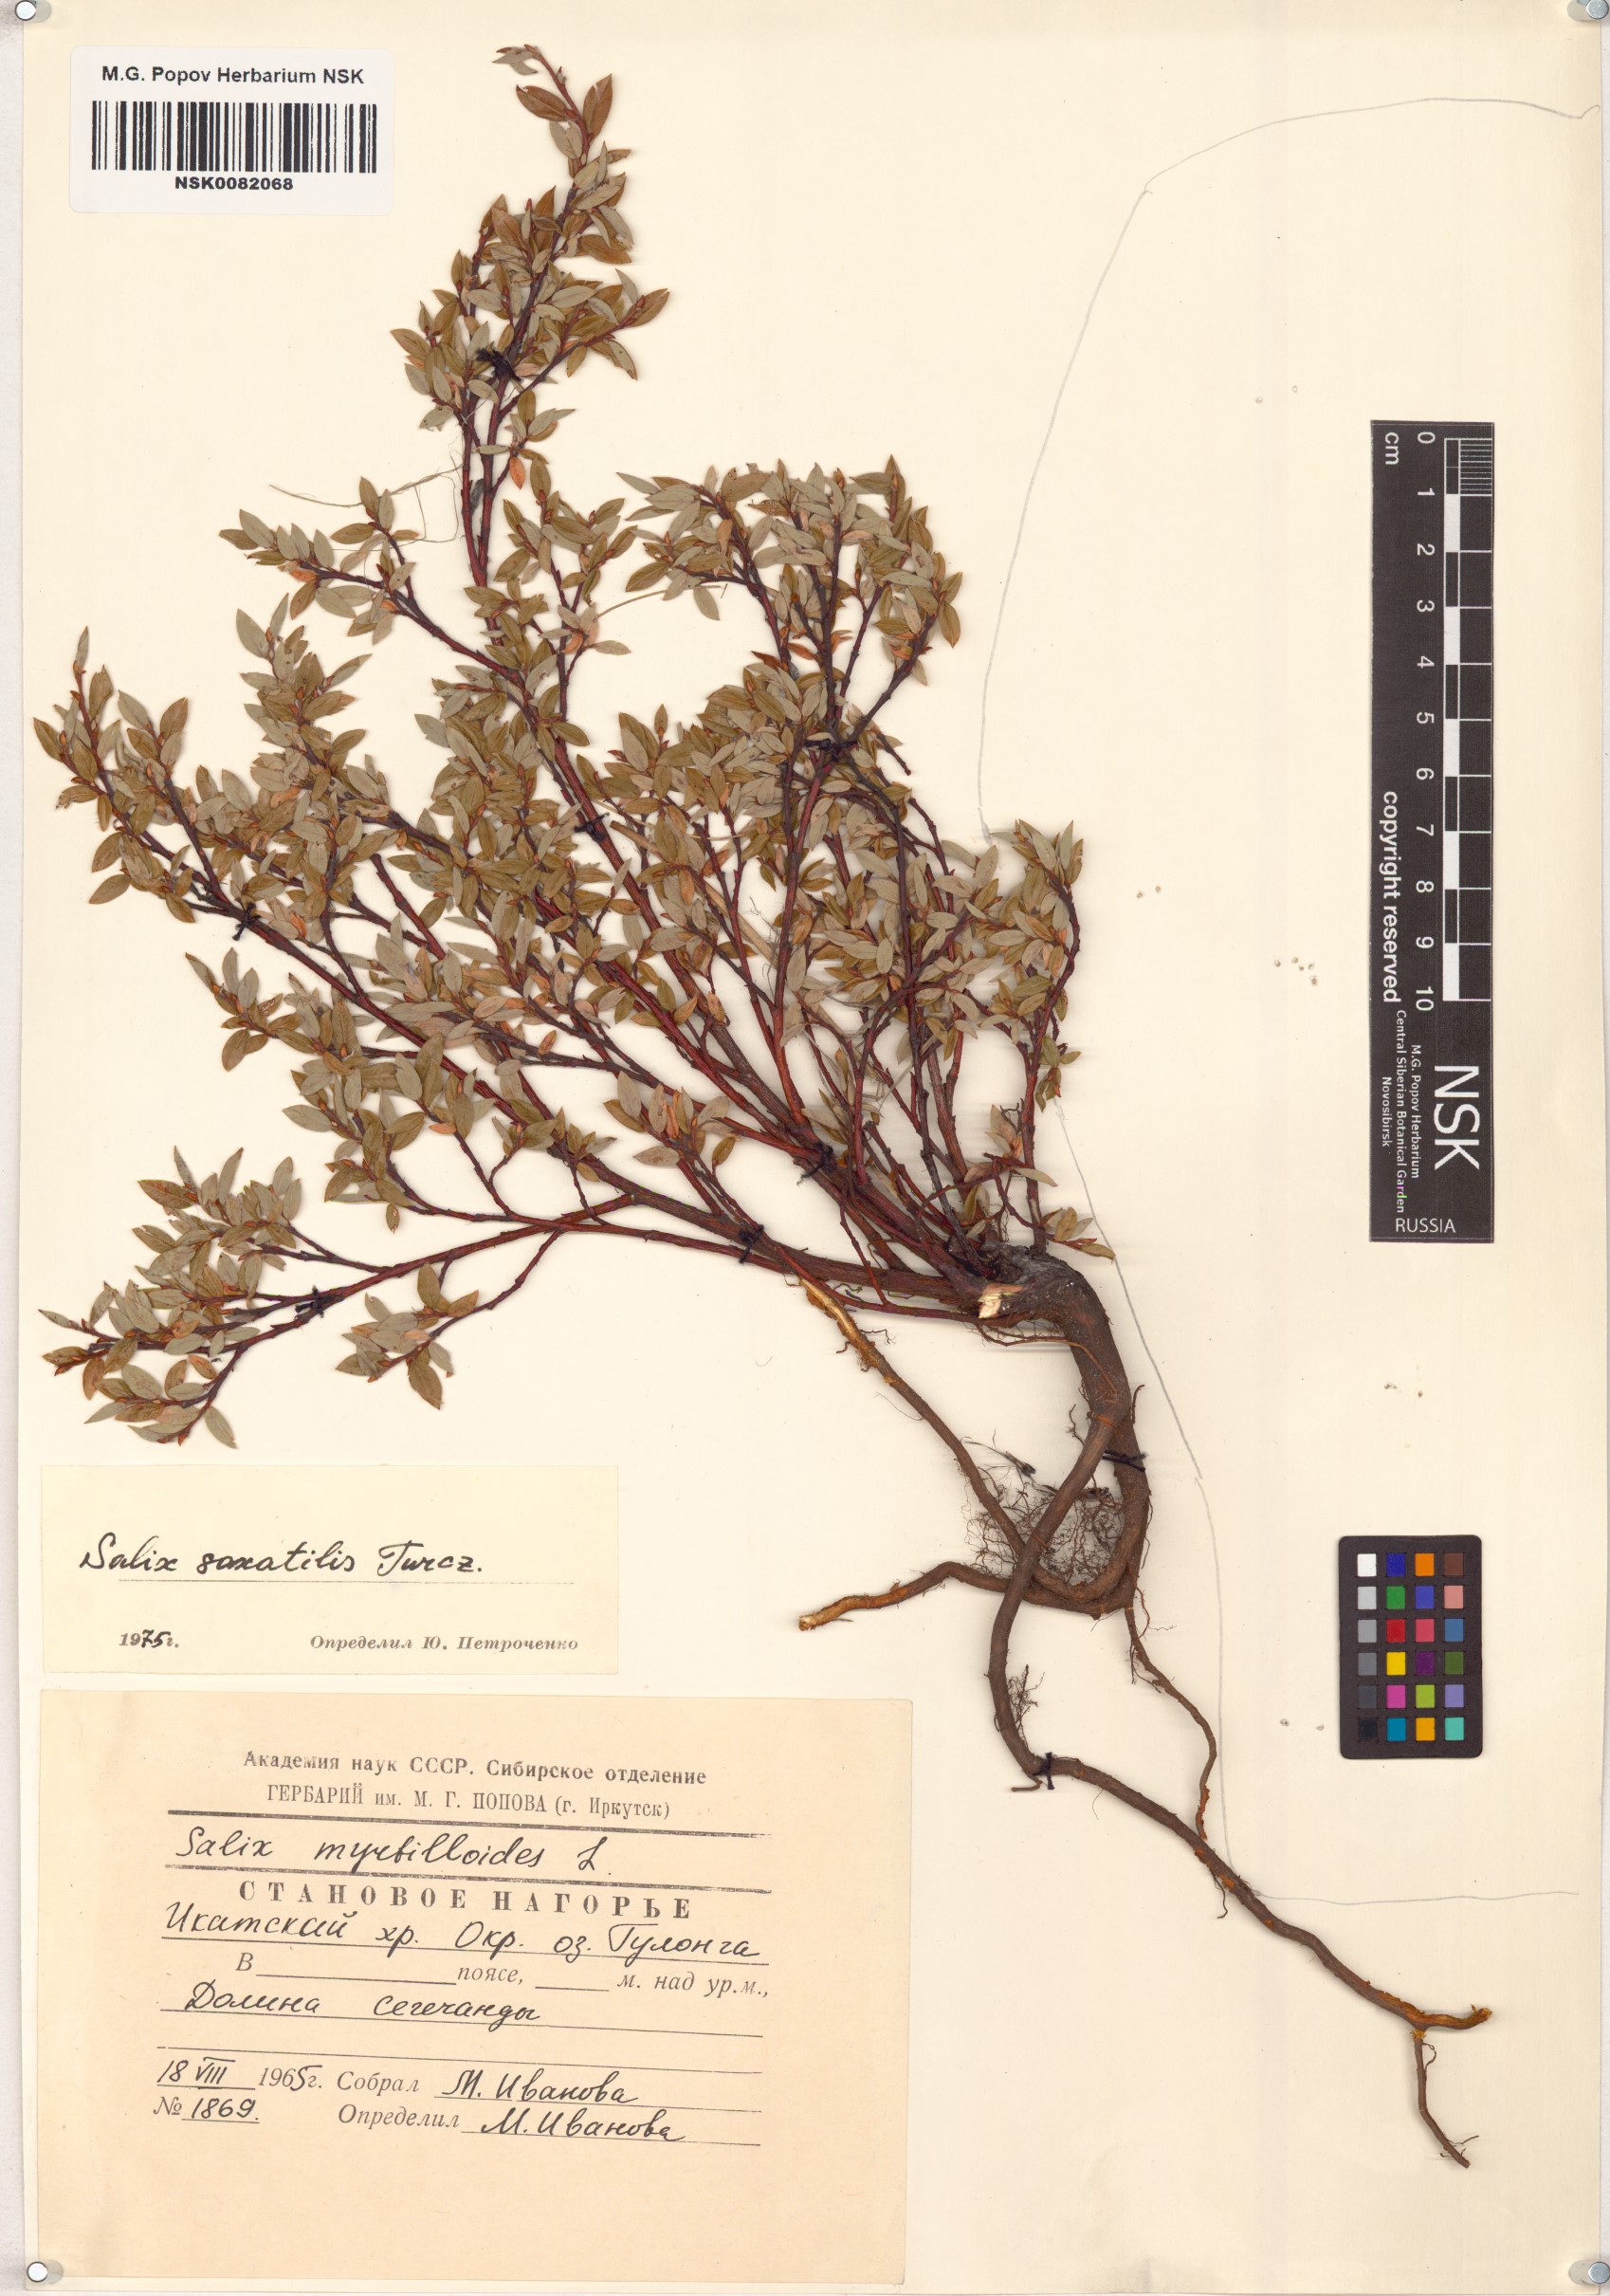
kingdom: Plantae
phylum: Tracheophyta
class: Magnoliopsida
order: Malpighiales
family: Salicaceae
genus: Salix
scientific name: Salix saxatilis
